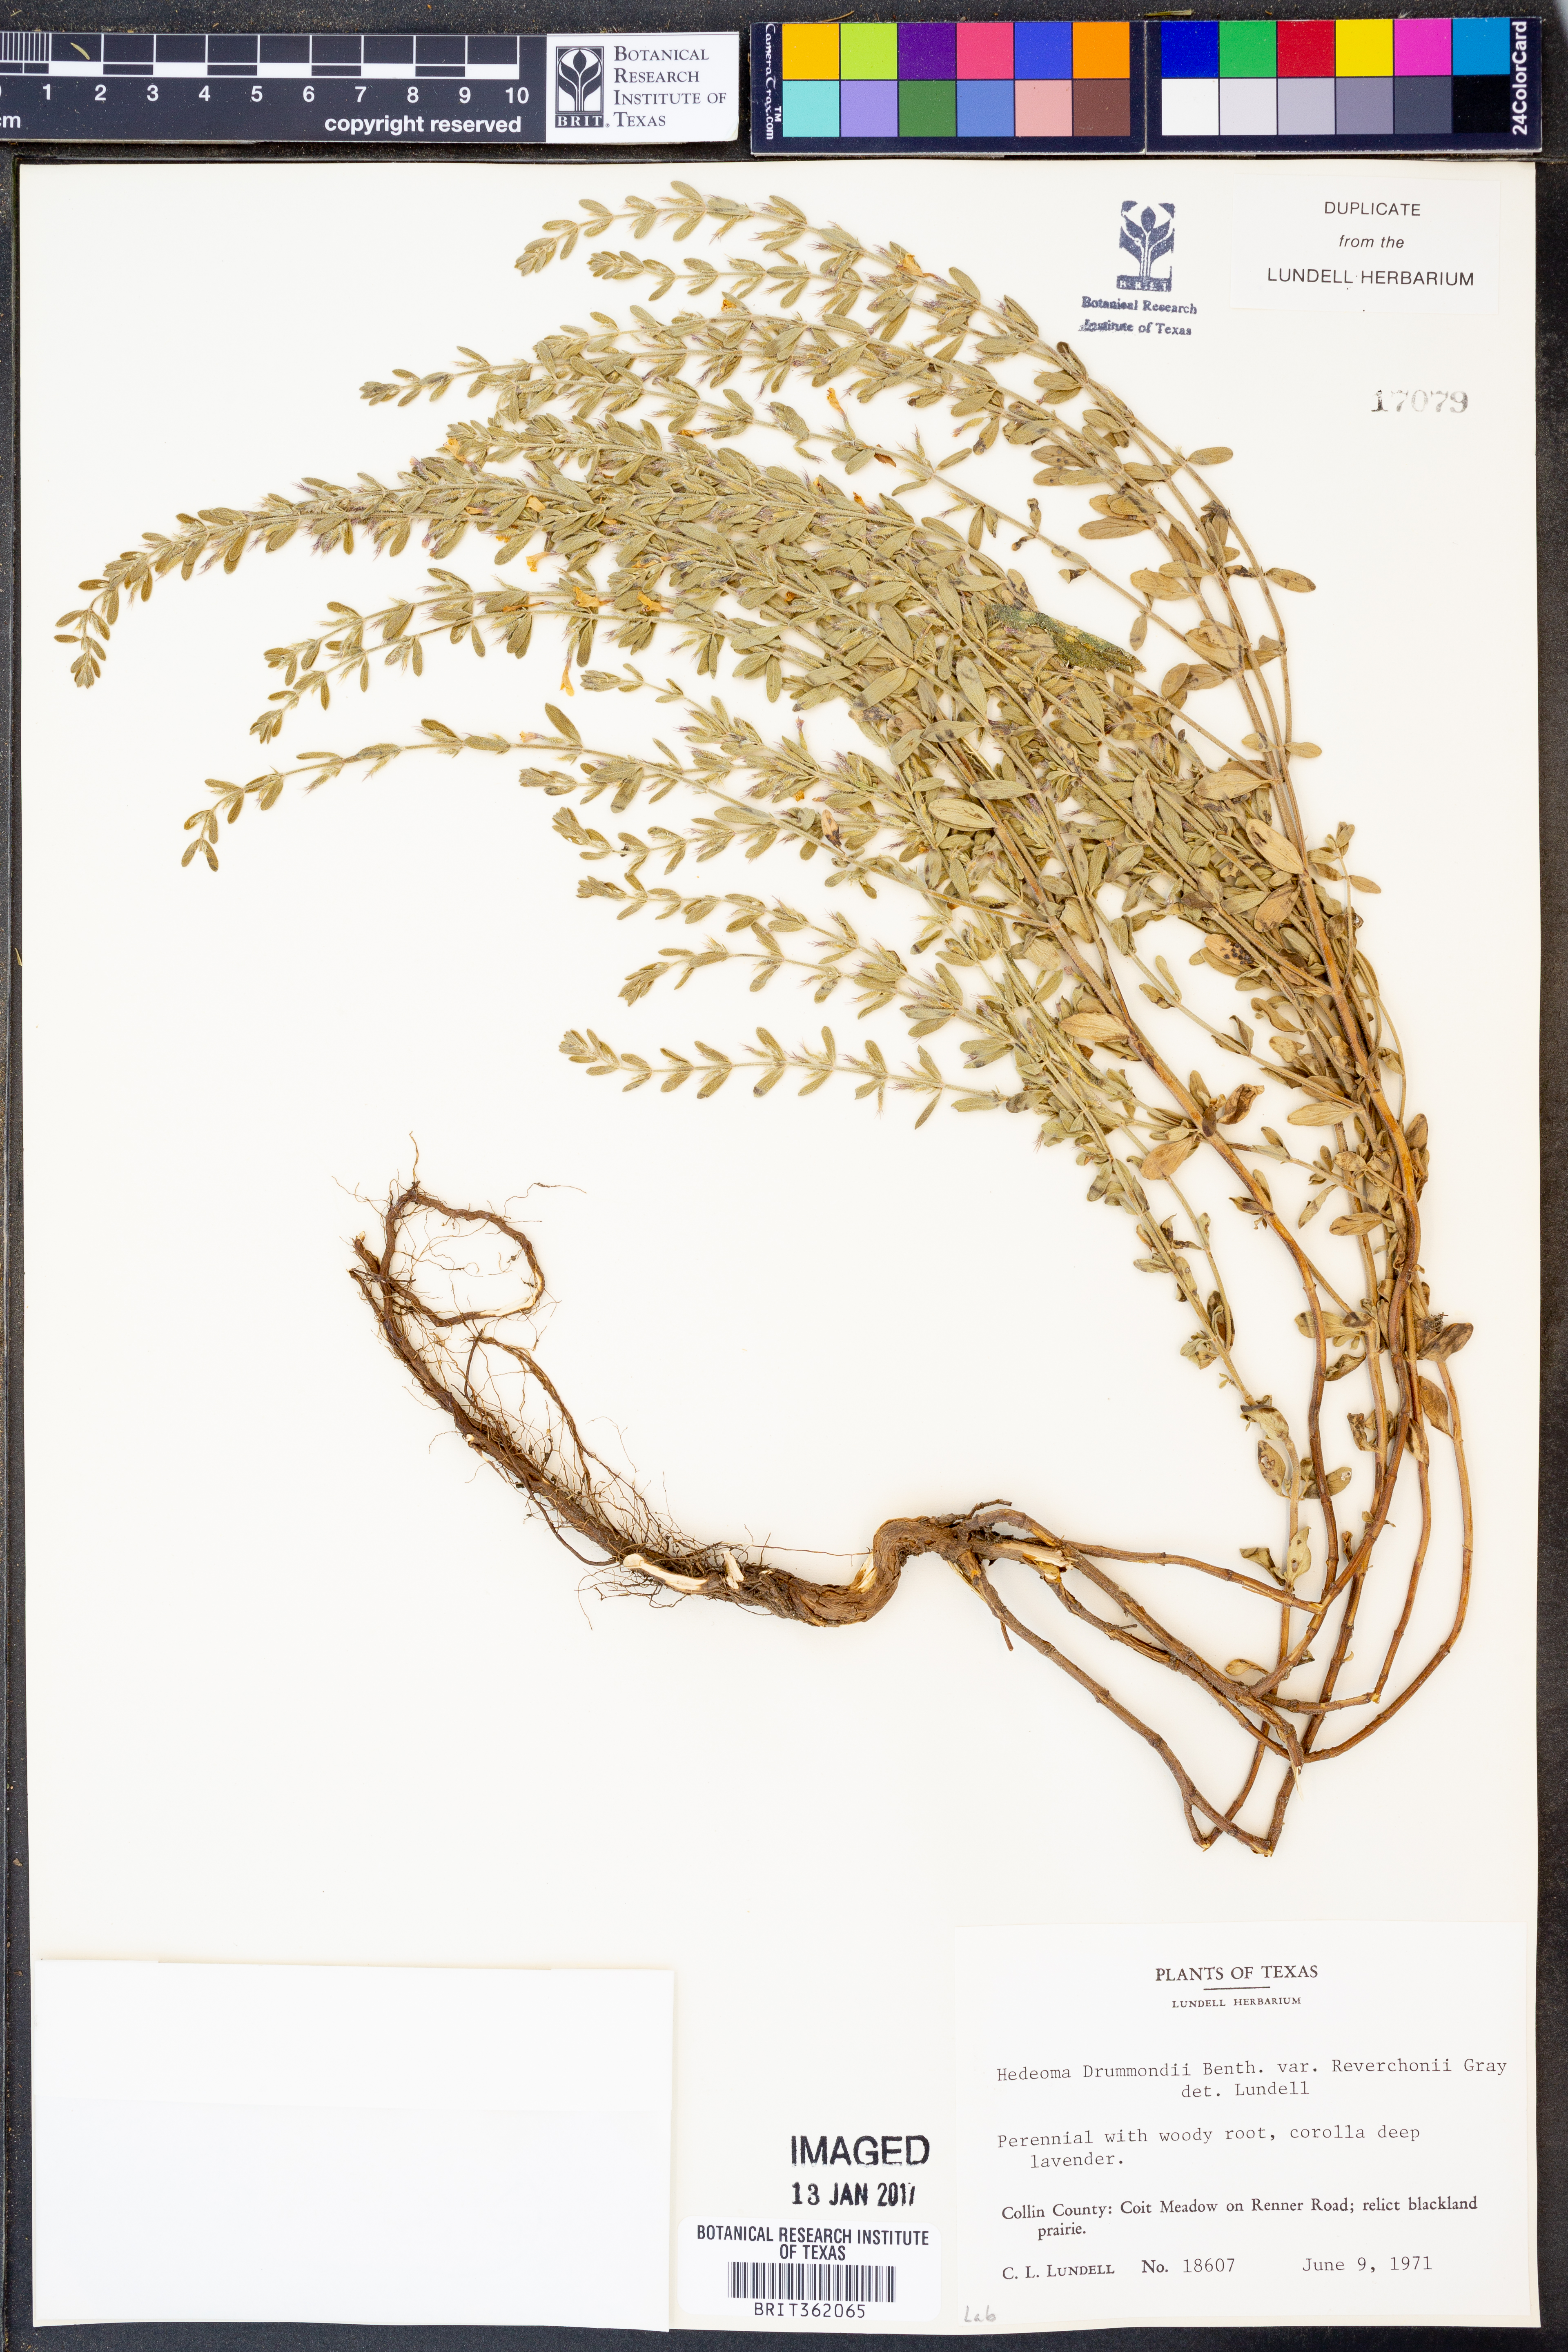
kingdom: Plantae
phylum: Tracheophyta
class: Magnoliopsida
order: Lamiales
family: Lamiaceae
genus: Hedeoma
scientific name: Hedeoma reverchonii
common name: Reverchon's false penny-royal
